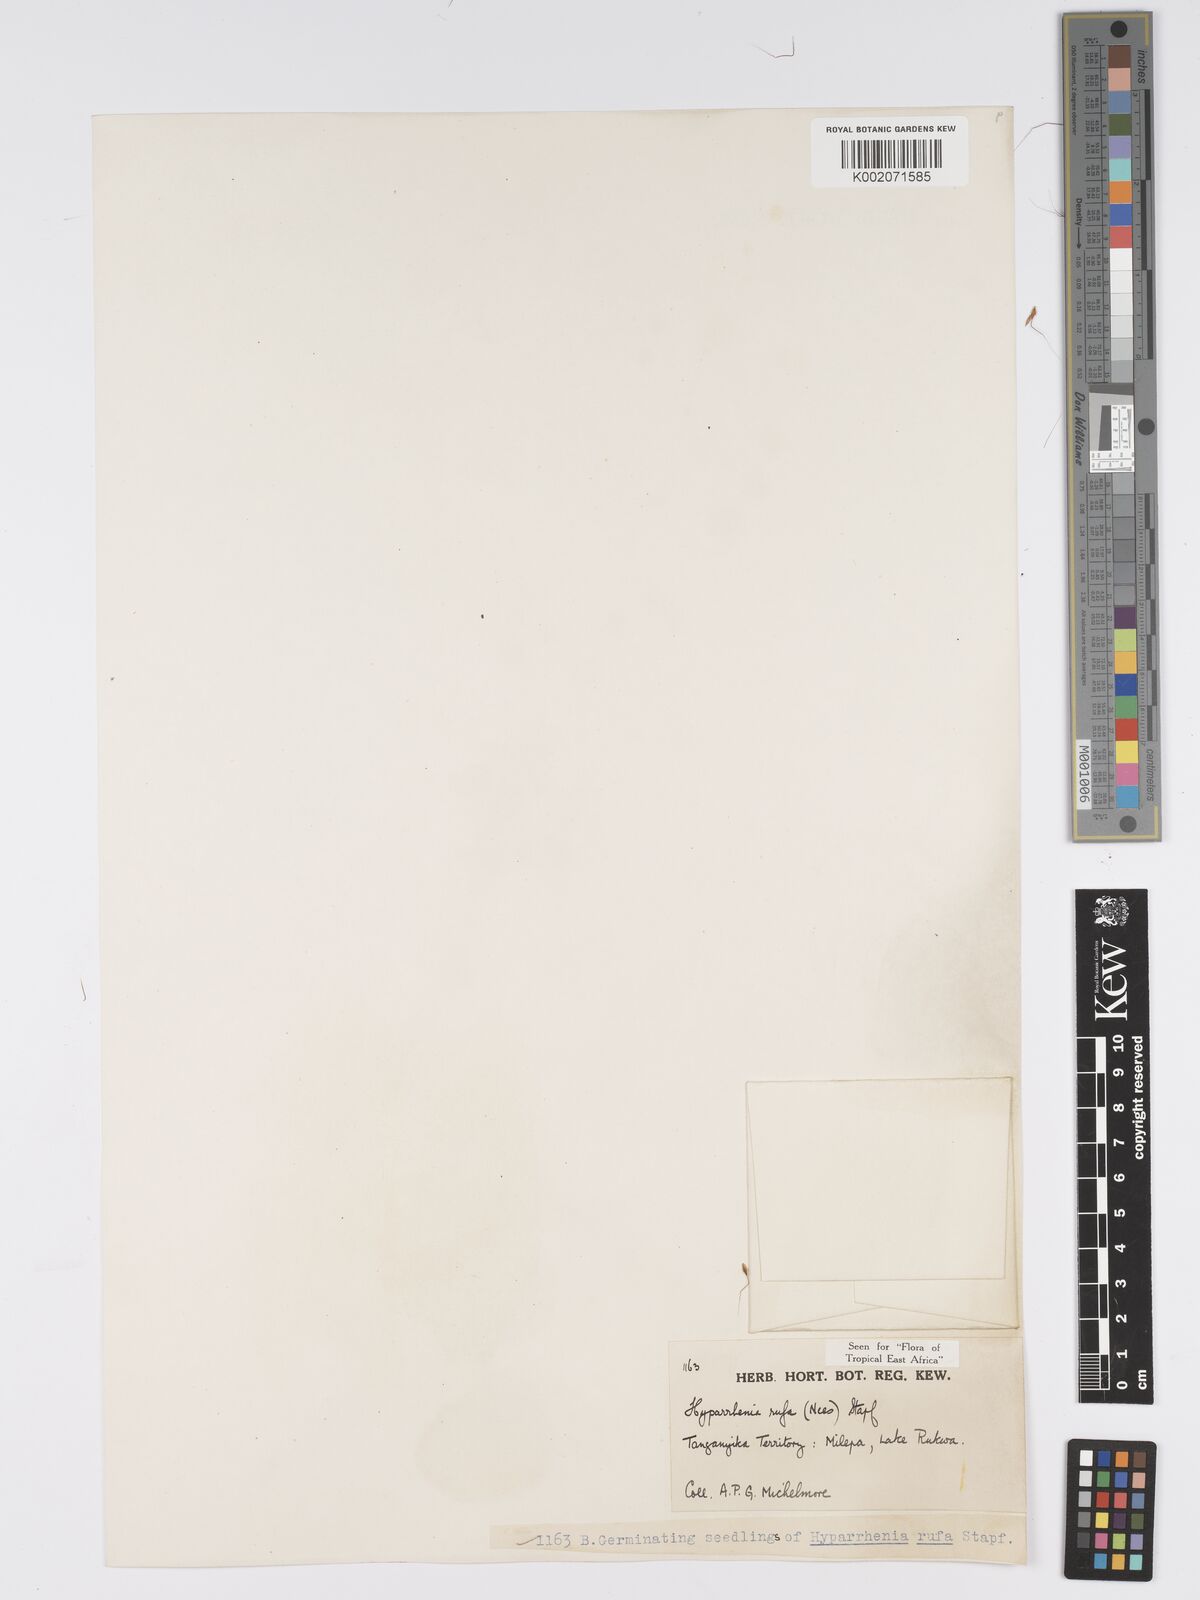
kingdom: Plantae
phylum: Tracheophyta
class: Liliopsida
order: Poales
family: Poaceae
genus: Hyparrhenia
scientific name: Hyparrhenia rufa
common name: Jaraguagrass
